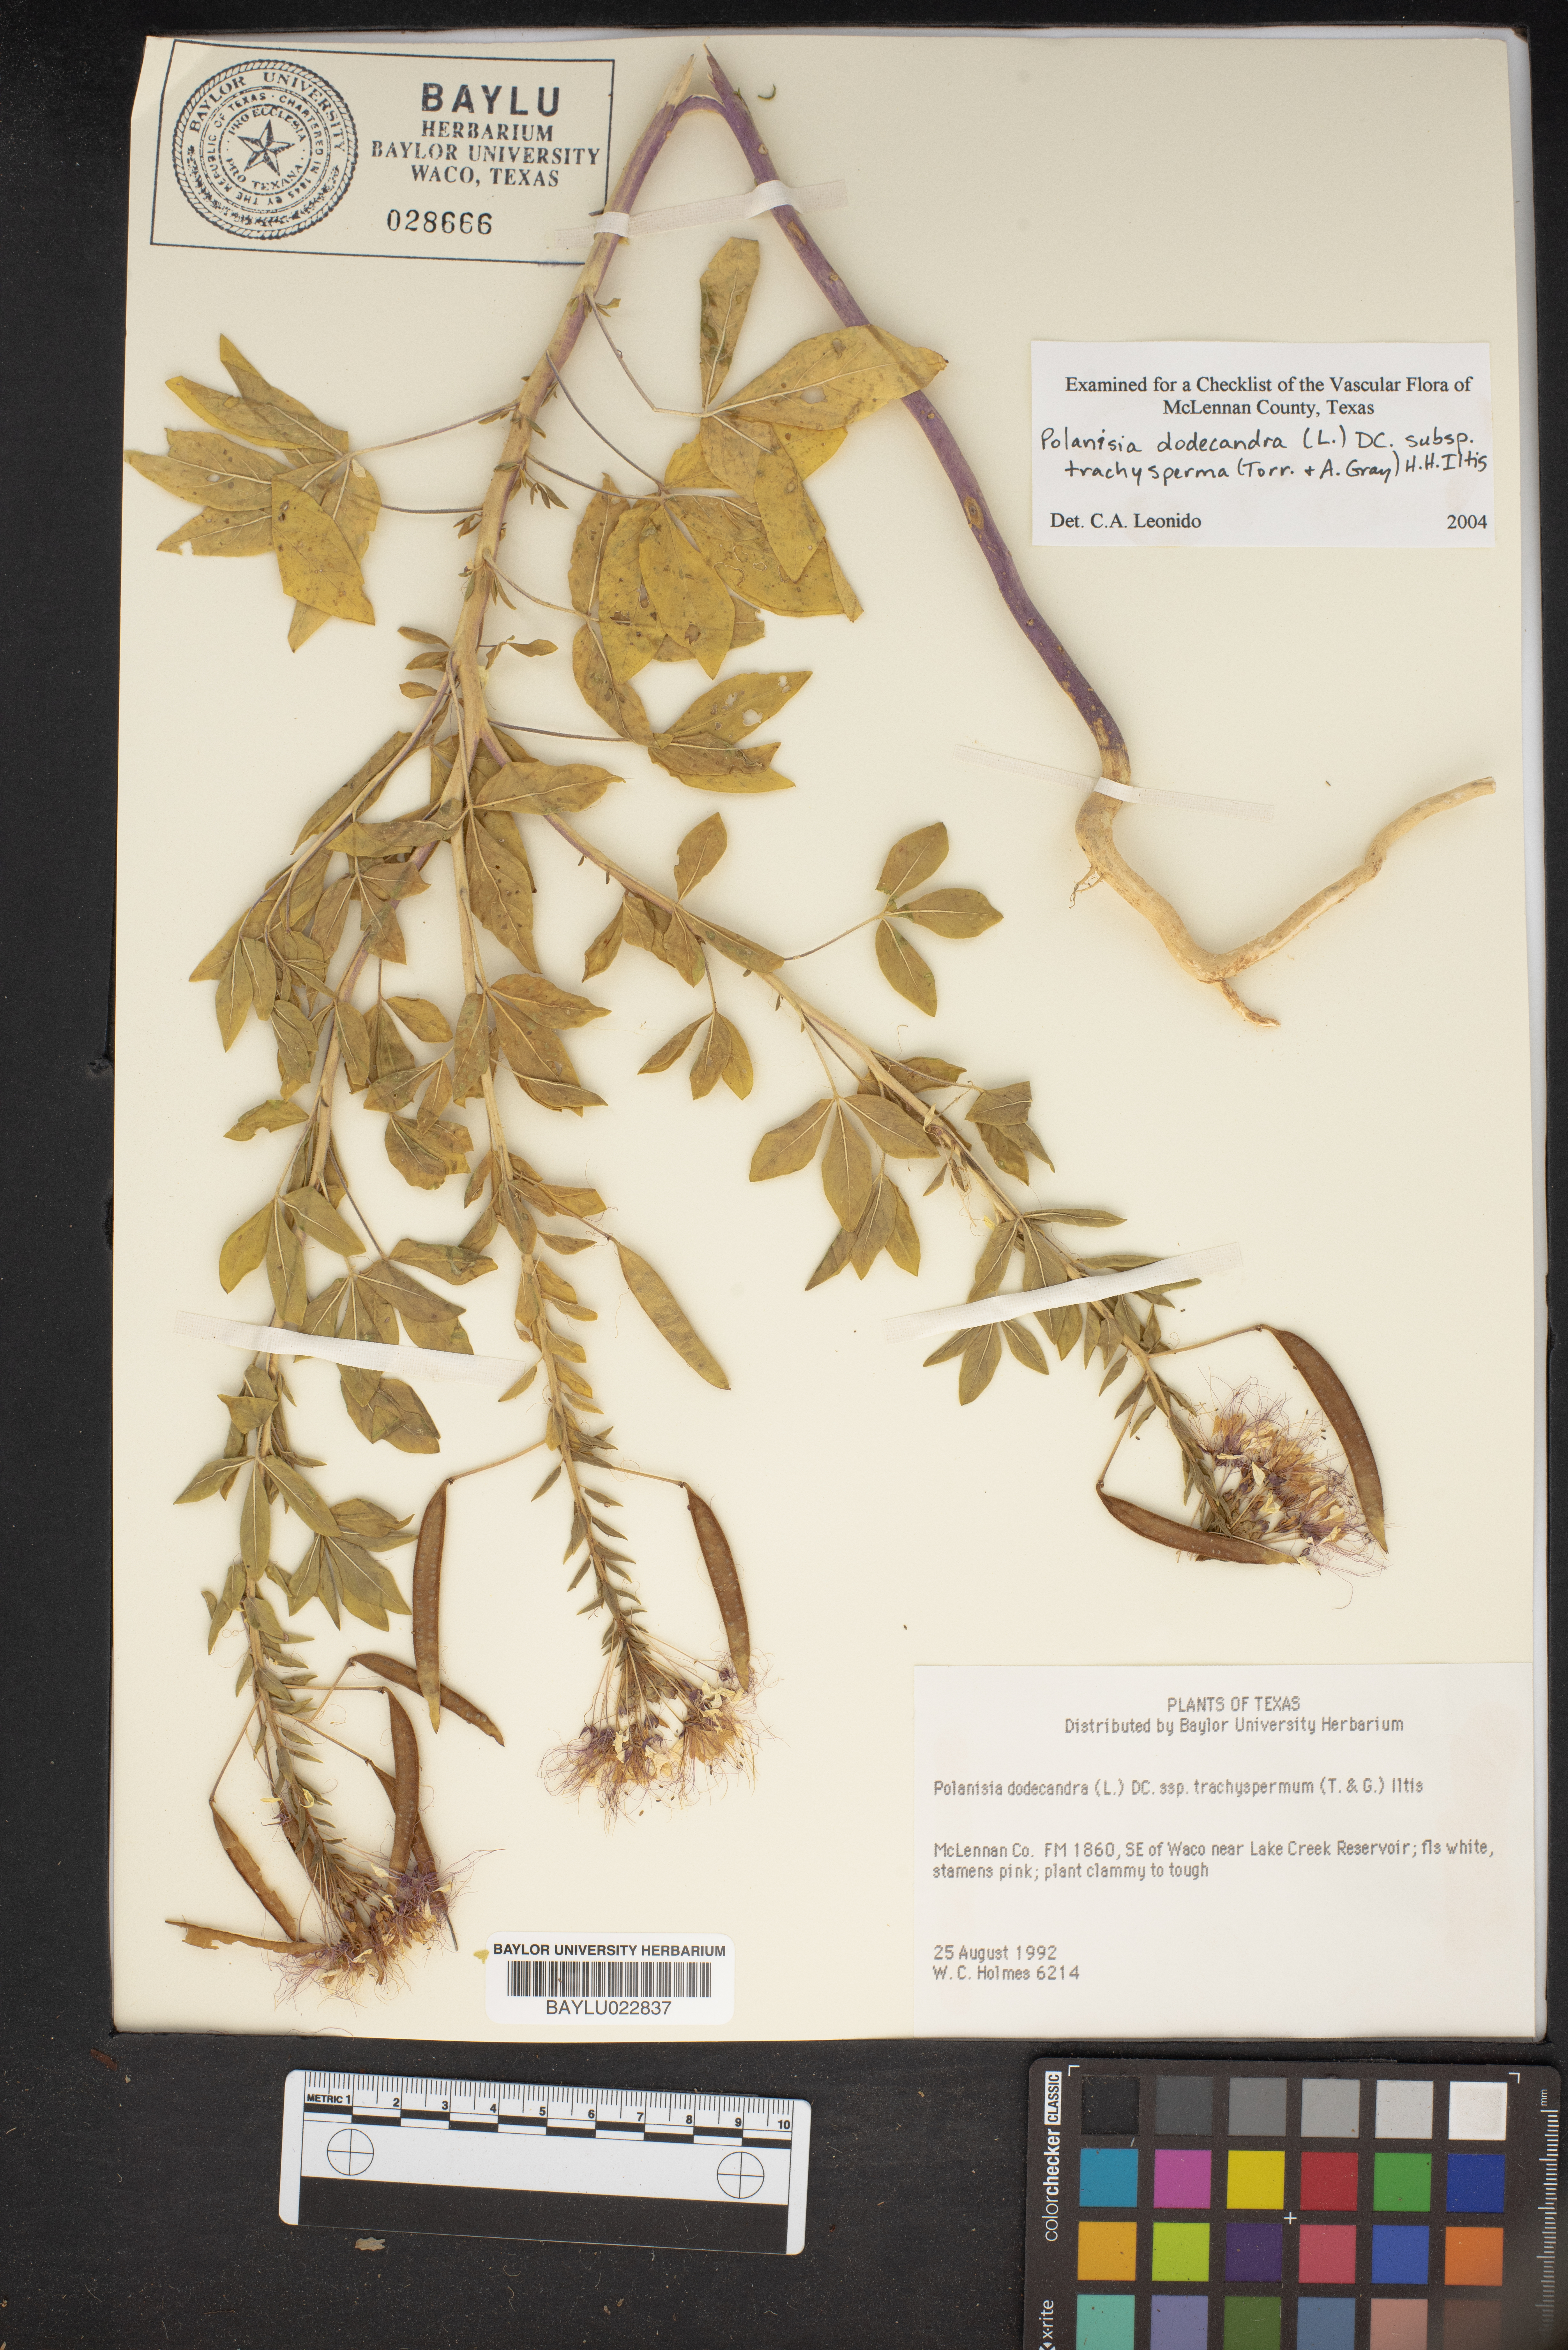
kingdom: Plantae
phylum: Tracheophyta
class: Magnoliopsida
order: Brassicales
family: Cleomaceae
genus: Polanisia
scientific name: Polanisia dodecandra
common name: Clammyweed
